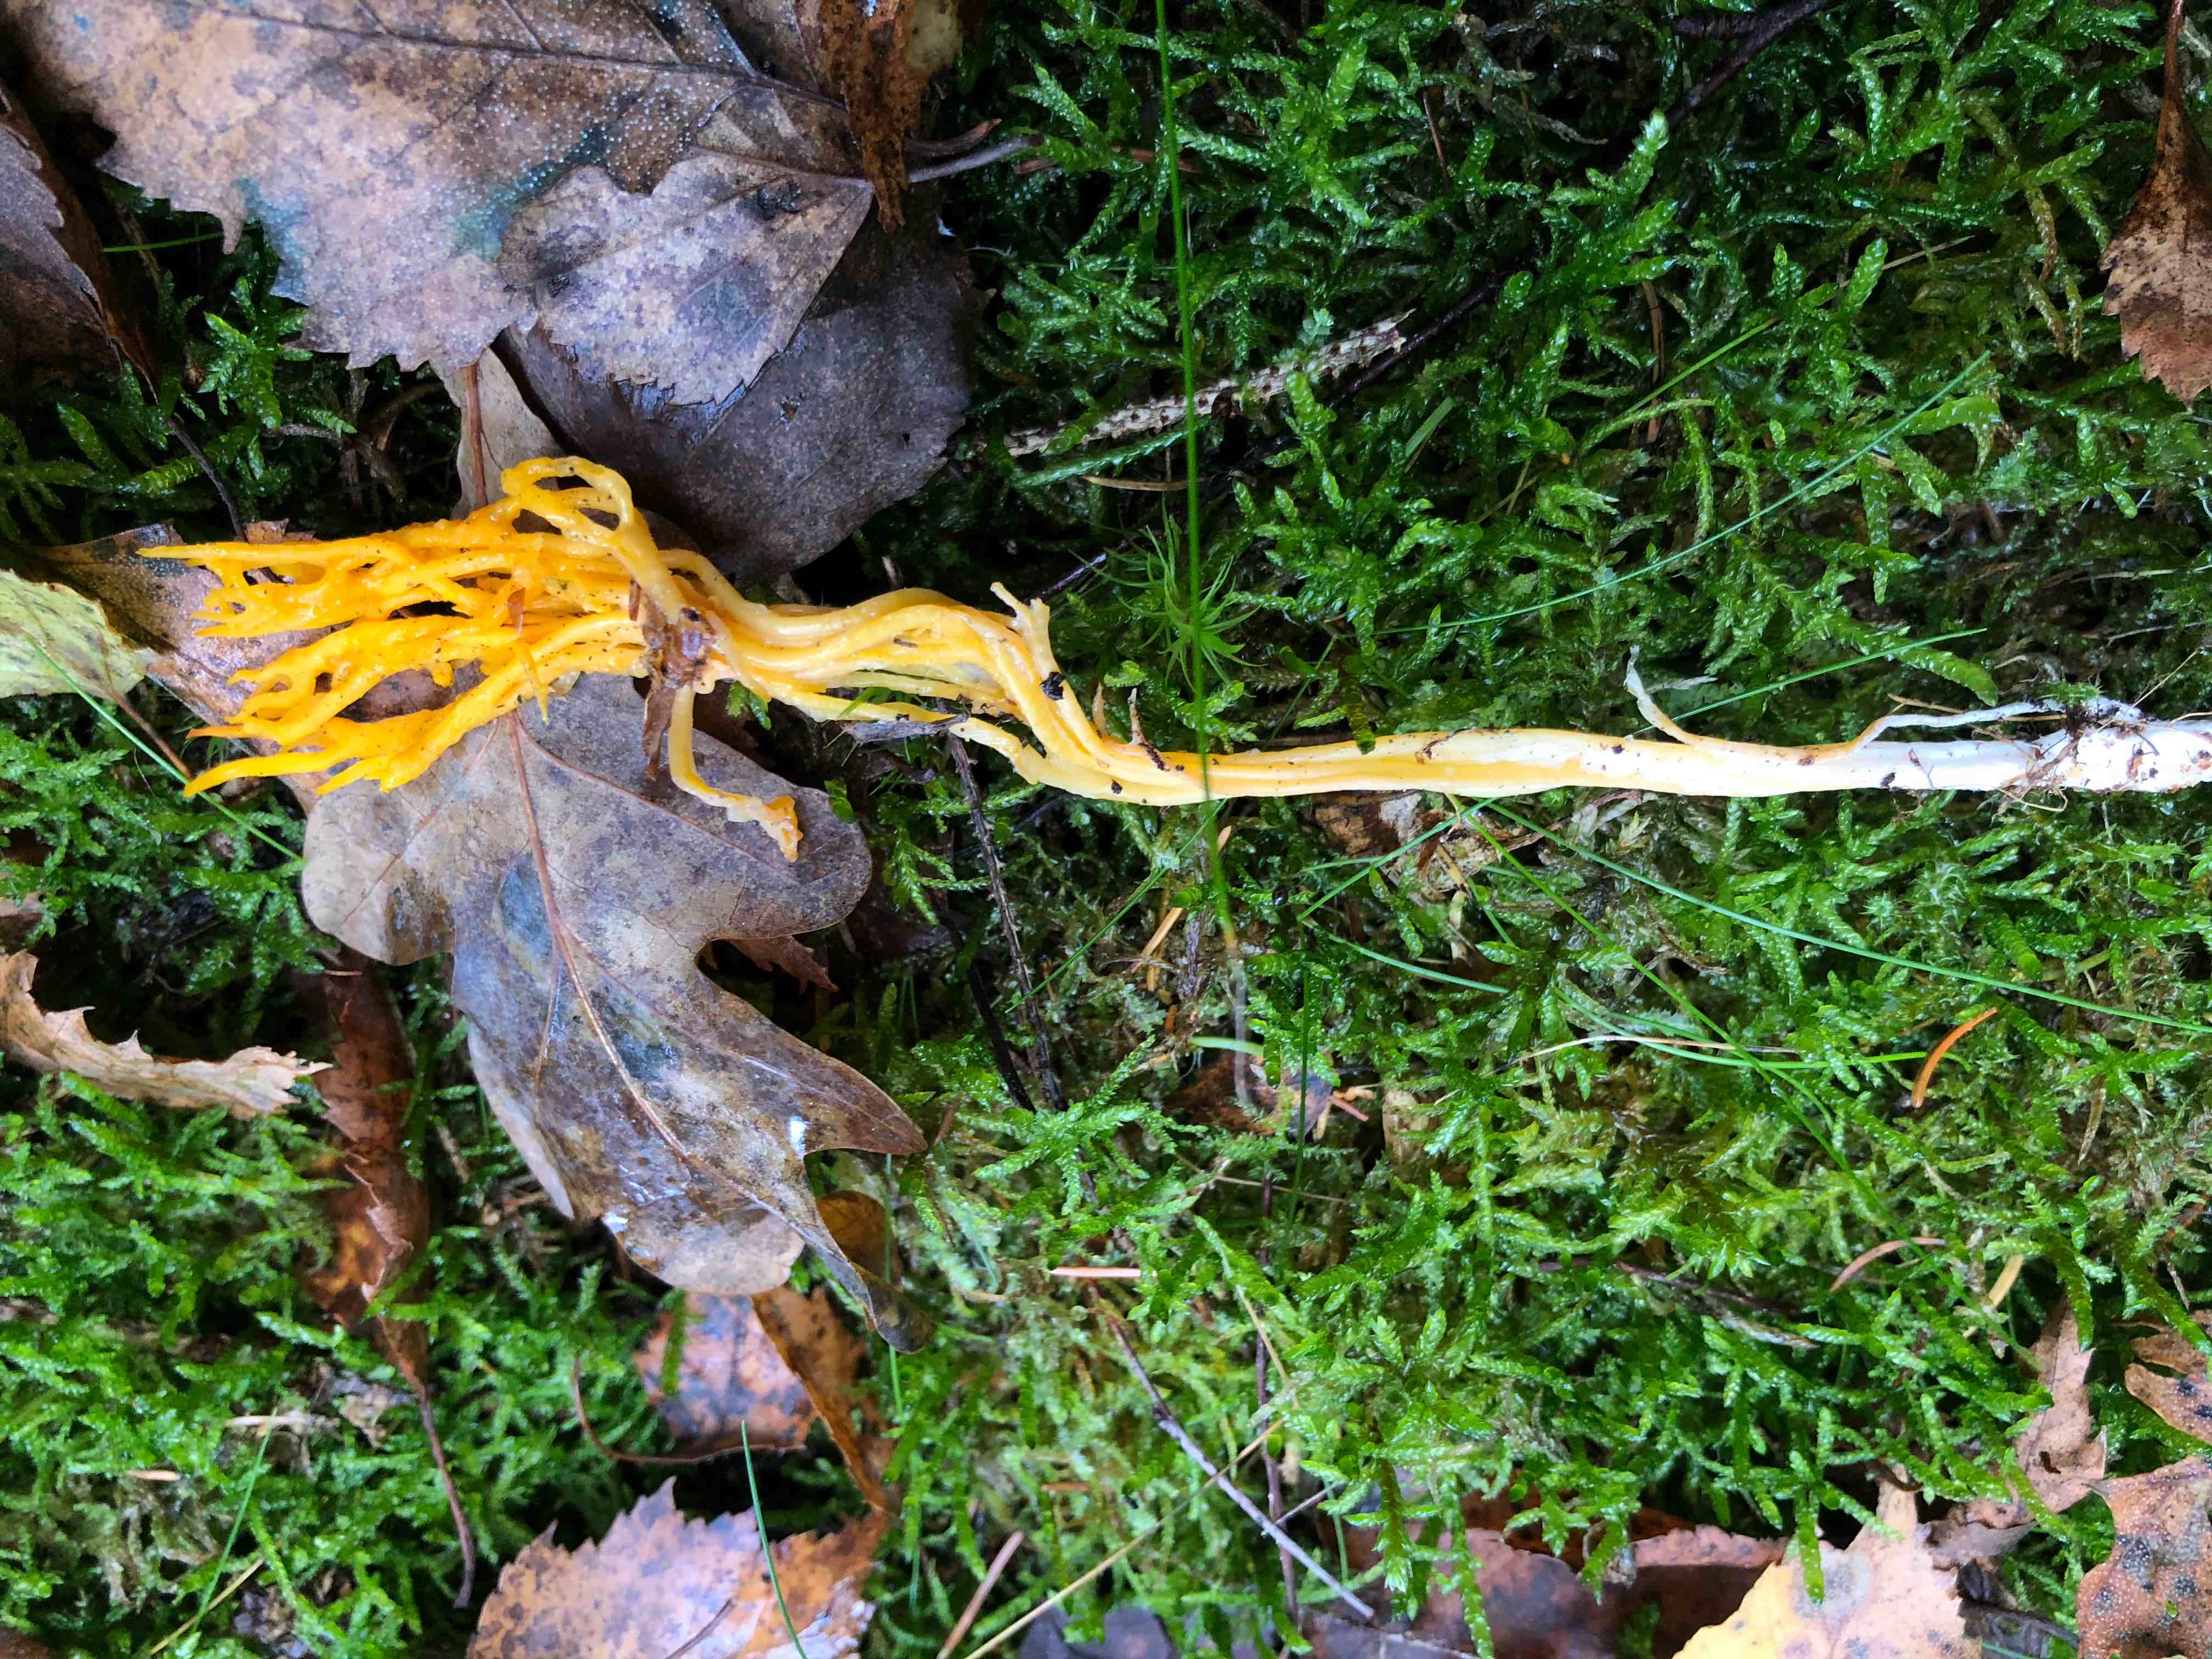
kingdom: Fungi
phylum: Basidiomycota
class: Dacrymycetes
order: Dacrymycetales
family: Dacrymycetaceae
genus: Calocera
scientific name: Calocera viscosa
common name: almindelig guldgaffel
